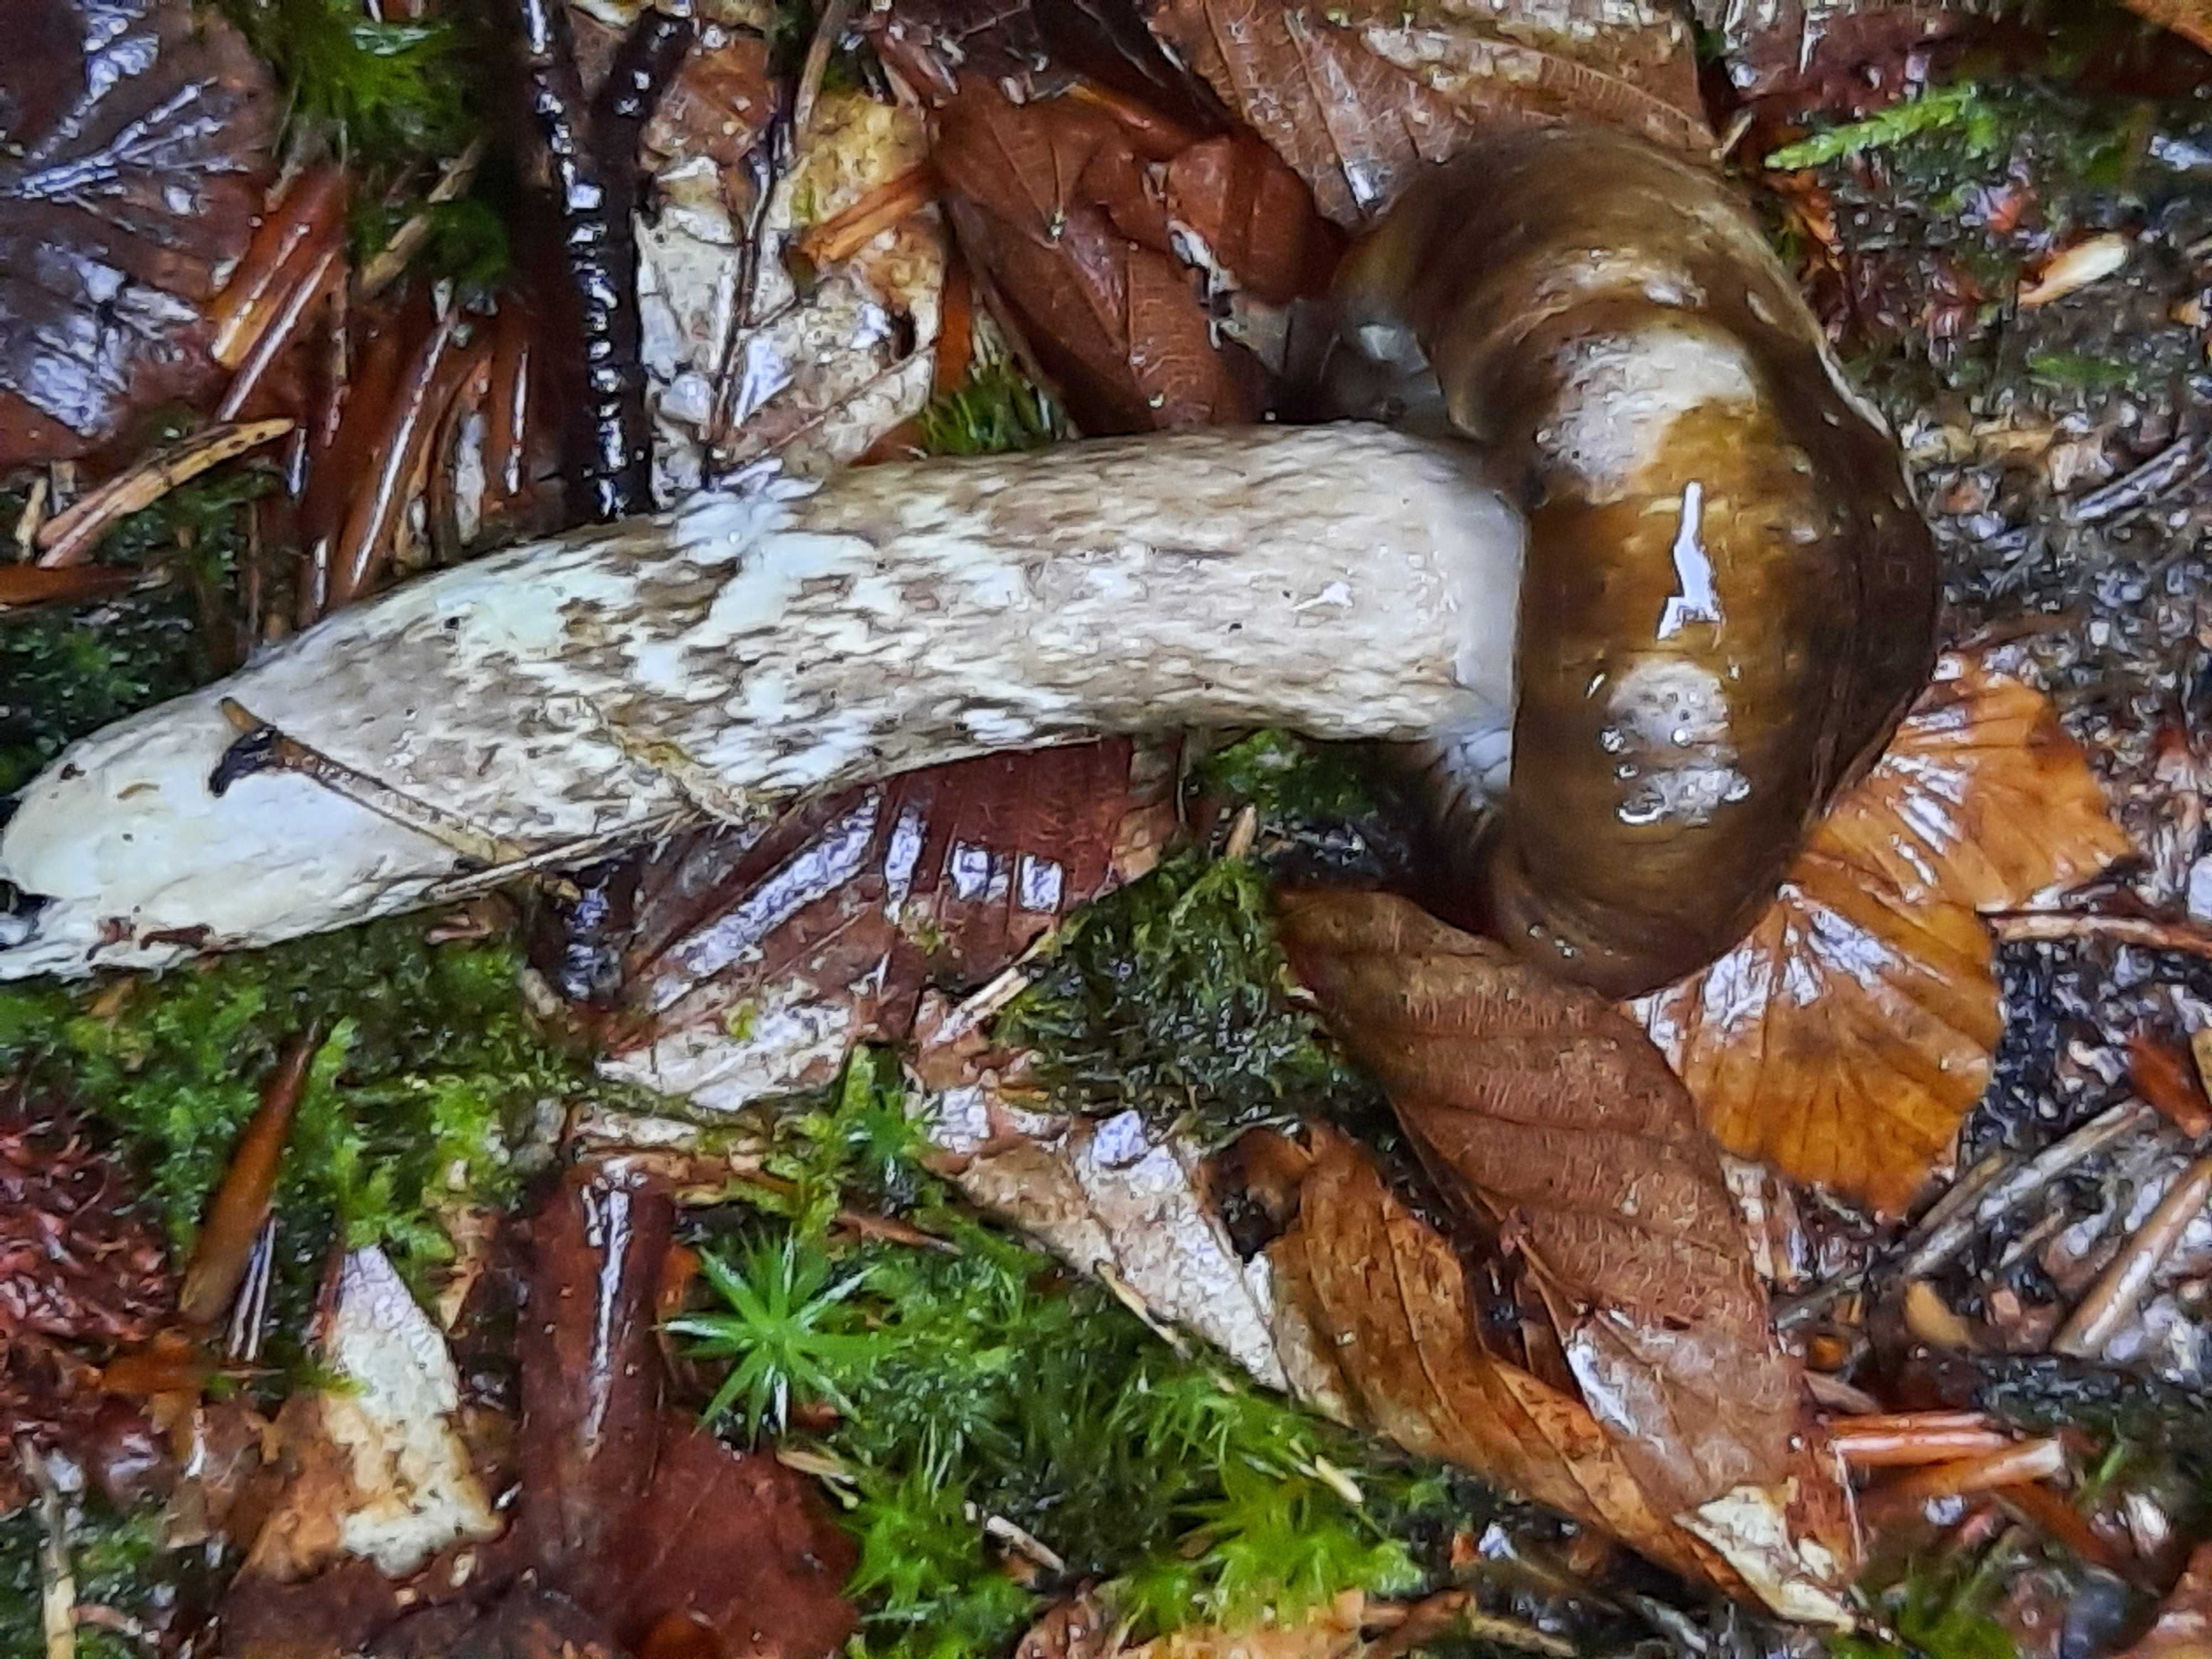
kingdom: Fungi
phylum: Basidiomycota
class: Agaricomycetes
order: Agaricales
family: Hygrophoraceae
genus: Hygrophorus
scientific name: Hygrophorus olivaceoalbus
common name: hvidbrun sneglehat
